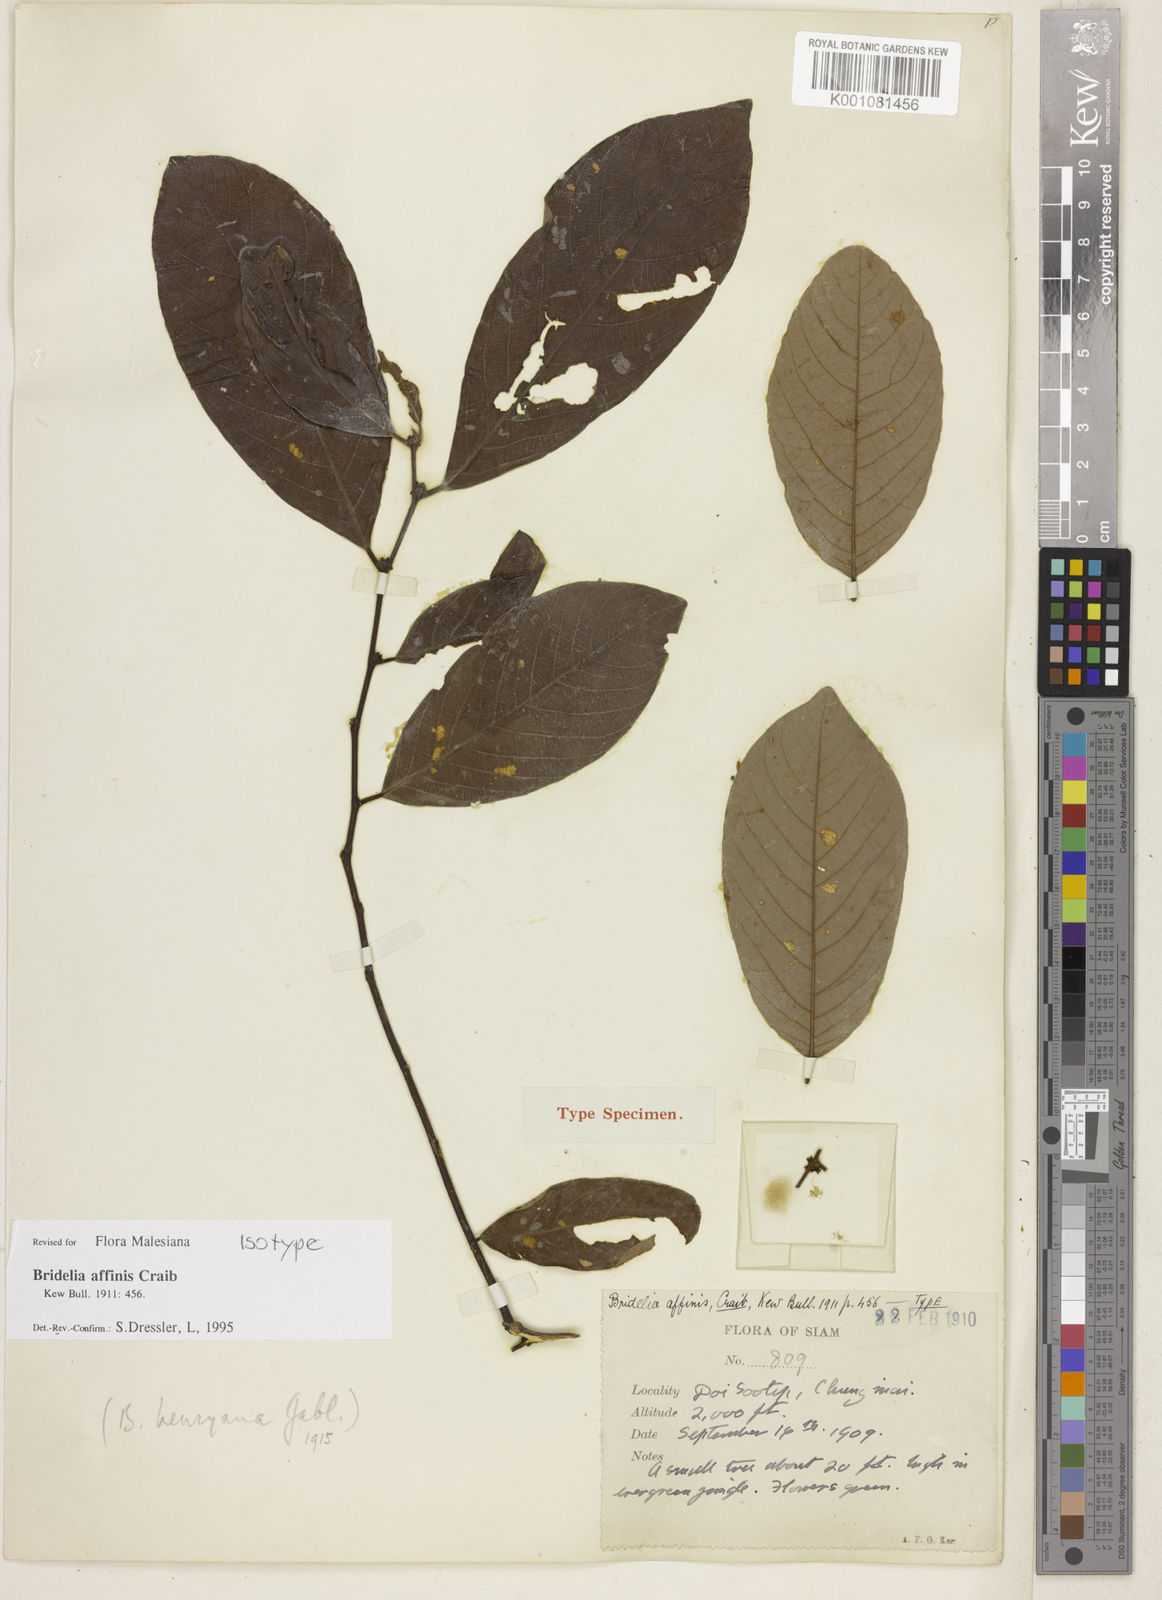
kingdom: Plantae
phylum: Tracheophyta
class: Magnoliopsida
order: Malpighiales
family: Phyllanthaceae
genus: Bridelia
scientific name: Bridelia affinis
